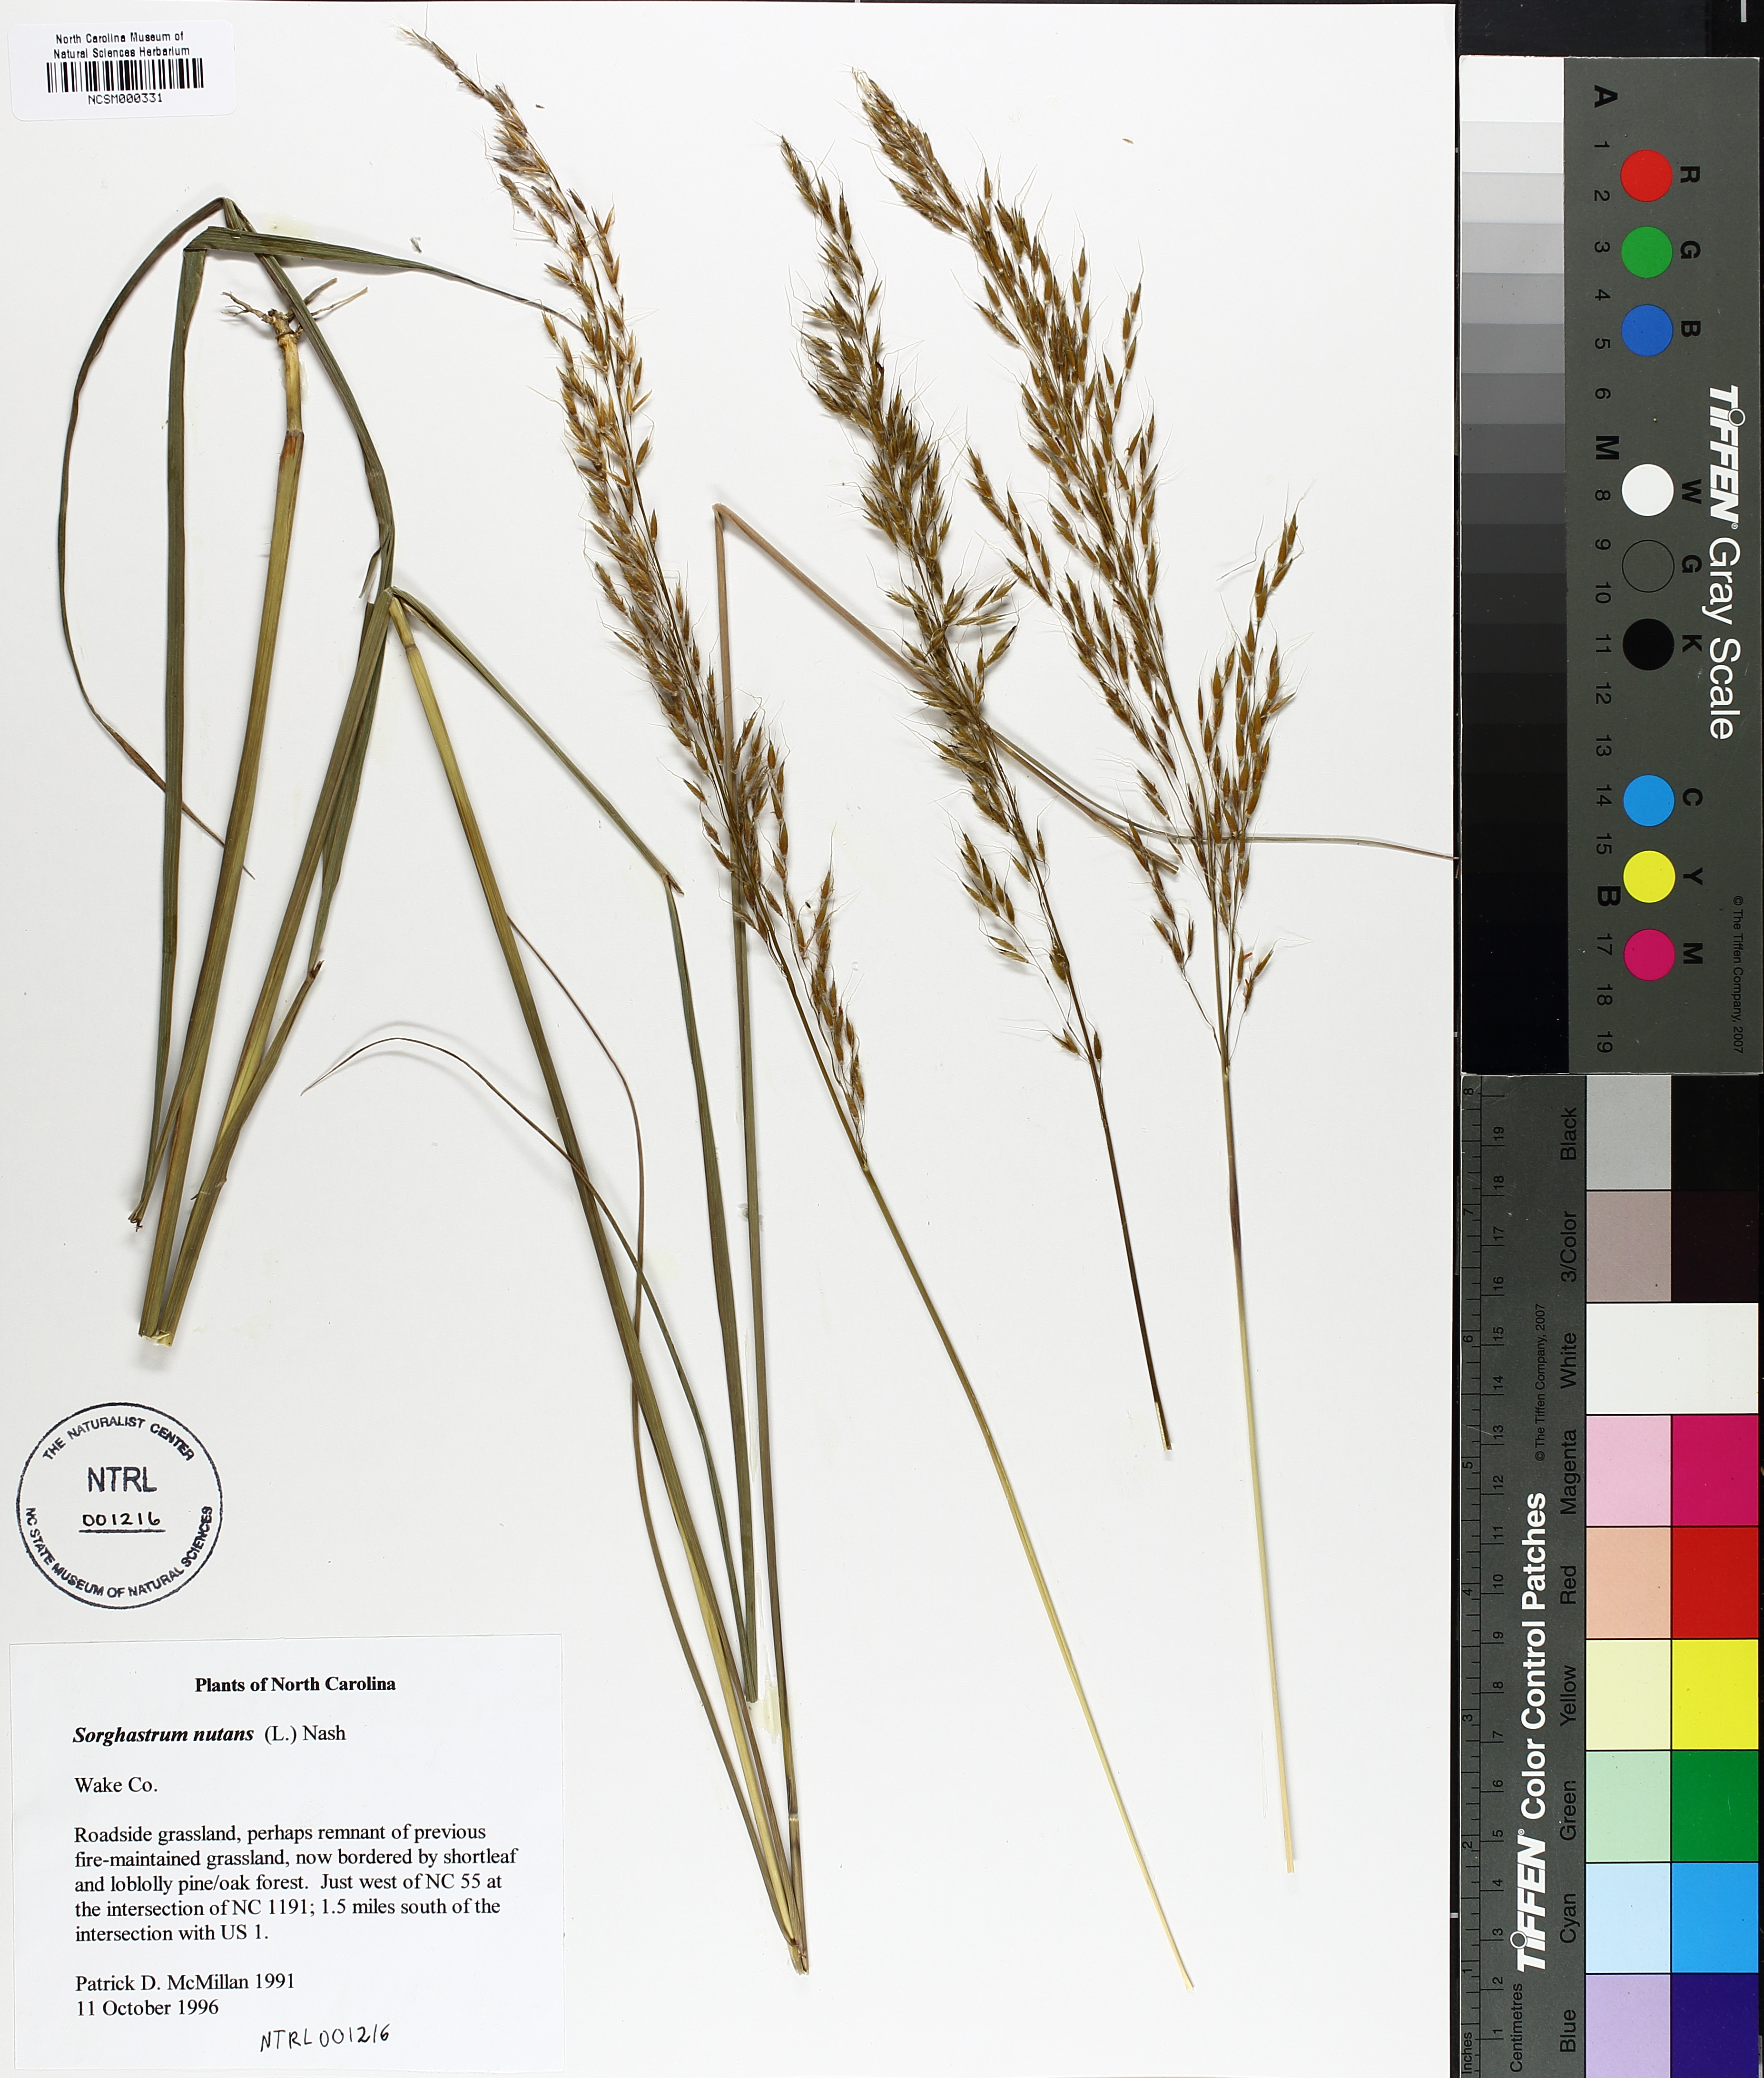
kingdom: Plantae
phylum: Tracheophyta
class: Liliopsida
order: Poales
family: Poaceae
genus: Sorghastrum
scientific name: Sorghastrum nutans
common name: Indian grass
